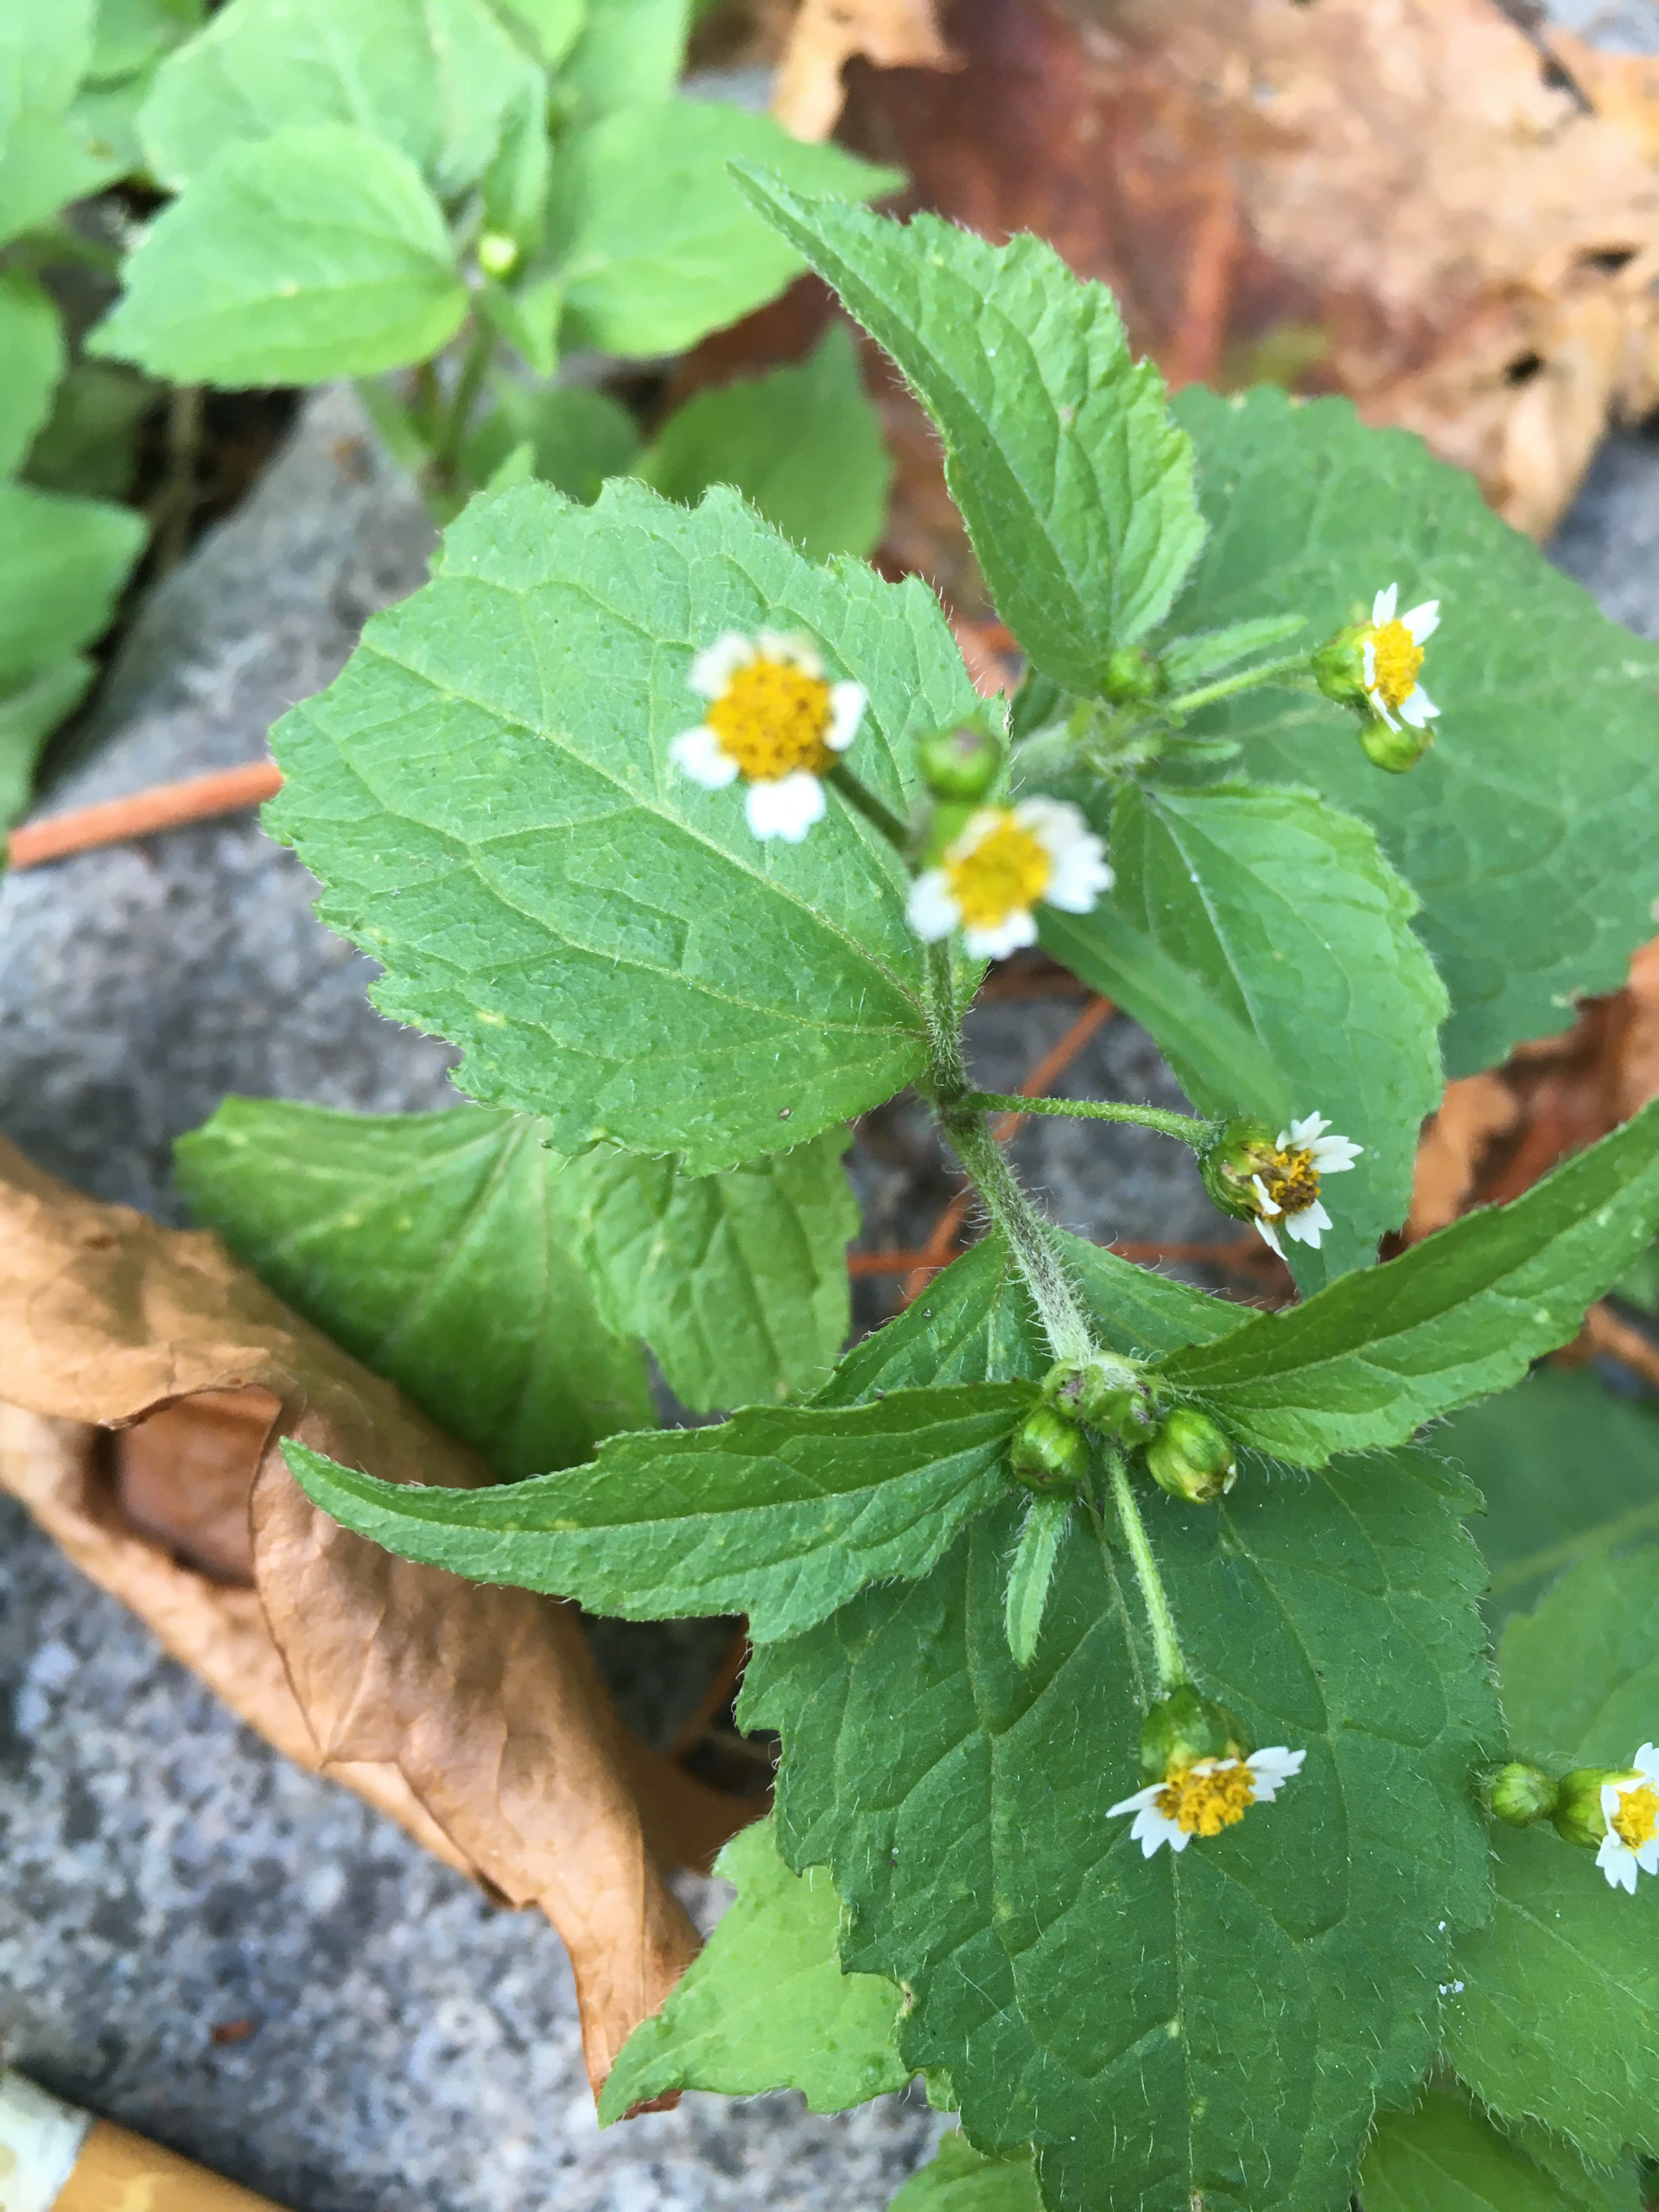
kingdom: Plantae
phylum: Tracheophyta
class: Magnoliopsida
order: Asterales
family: Asteraceae
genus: Galinsoga
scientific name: Galinsoga quadriradiata
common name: Kirtel-kortstråle
